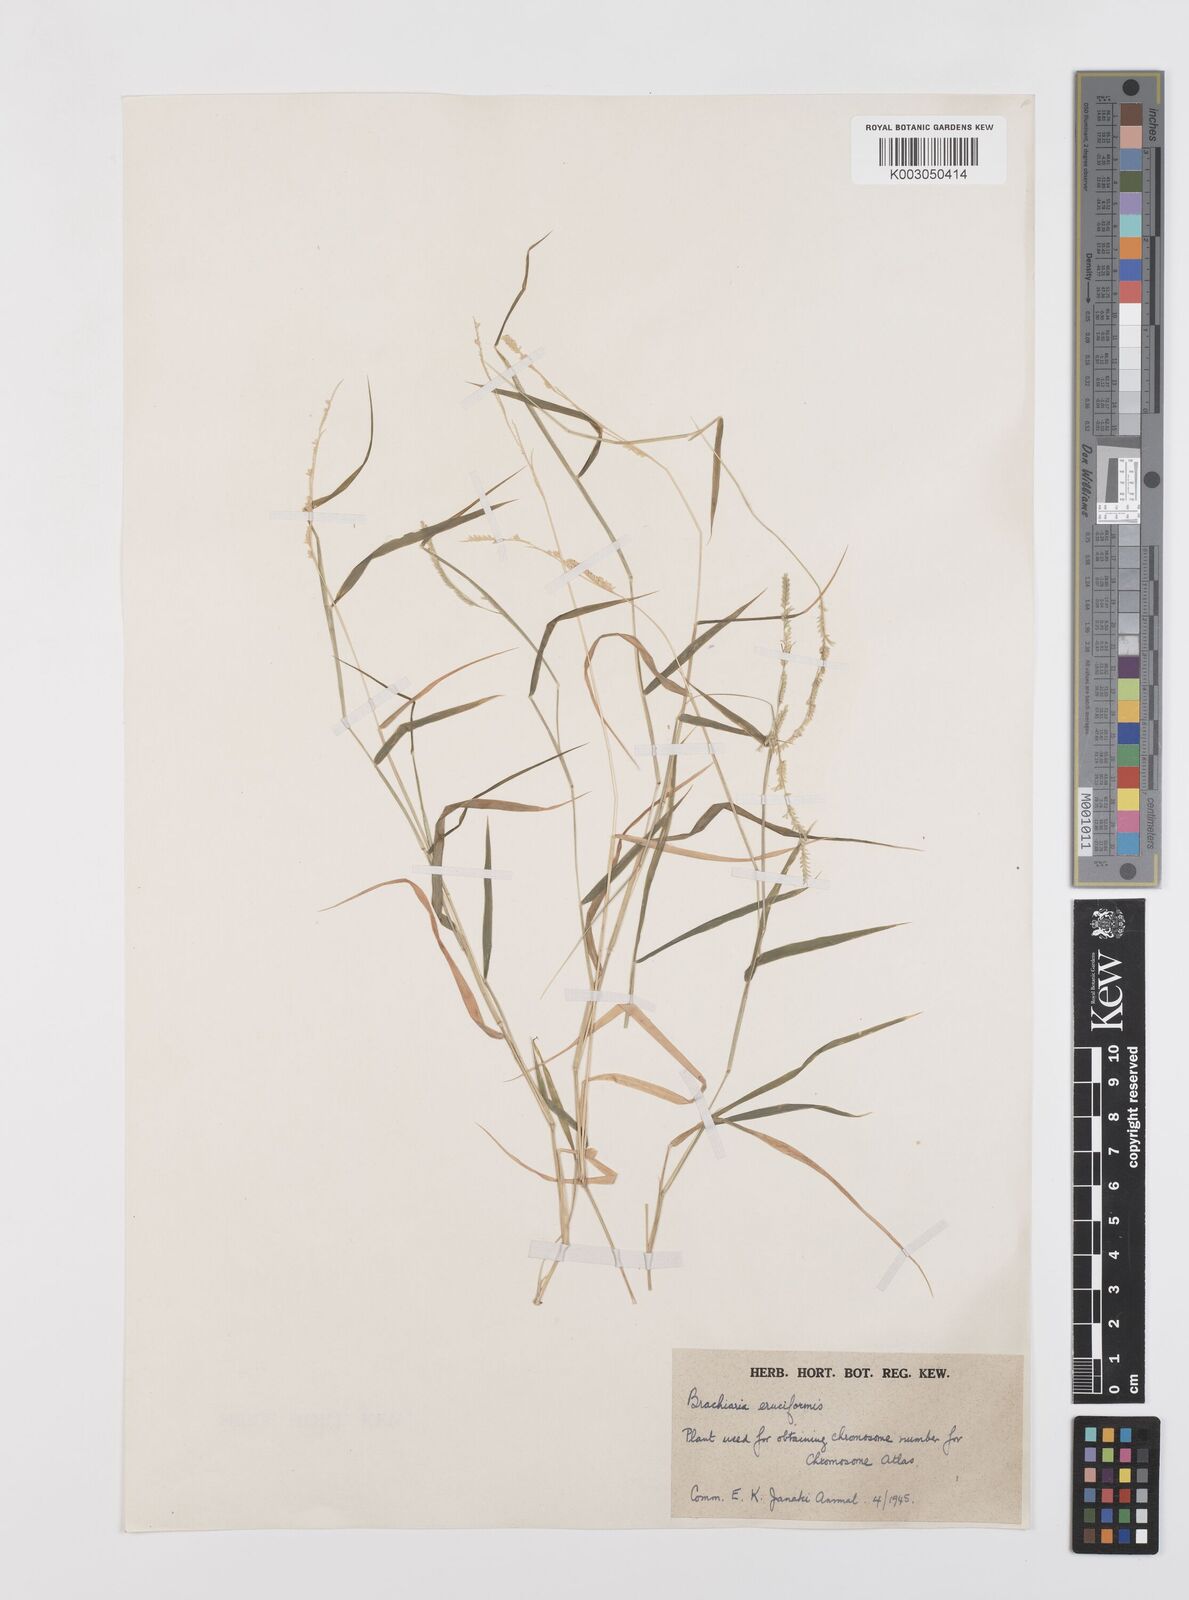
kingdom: Plantae
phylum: Tracheophyta
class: Liliopsida
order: Poales
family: Poaceae
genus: Moorochloa
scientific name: Moorochloa eruciformis
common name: Sweet signalgrass
